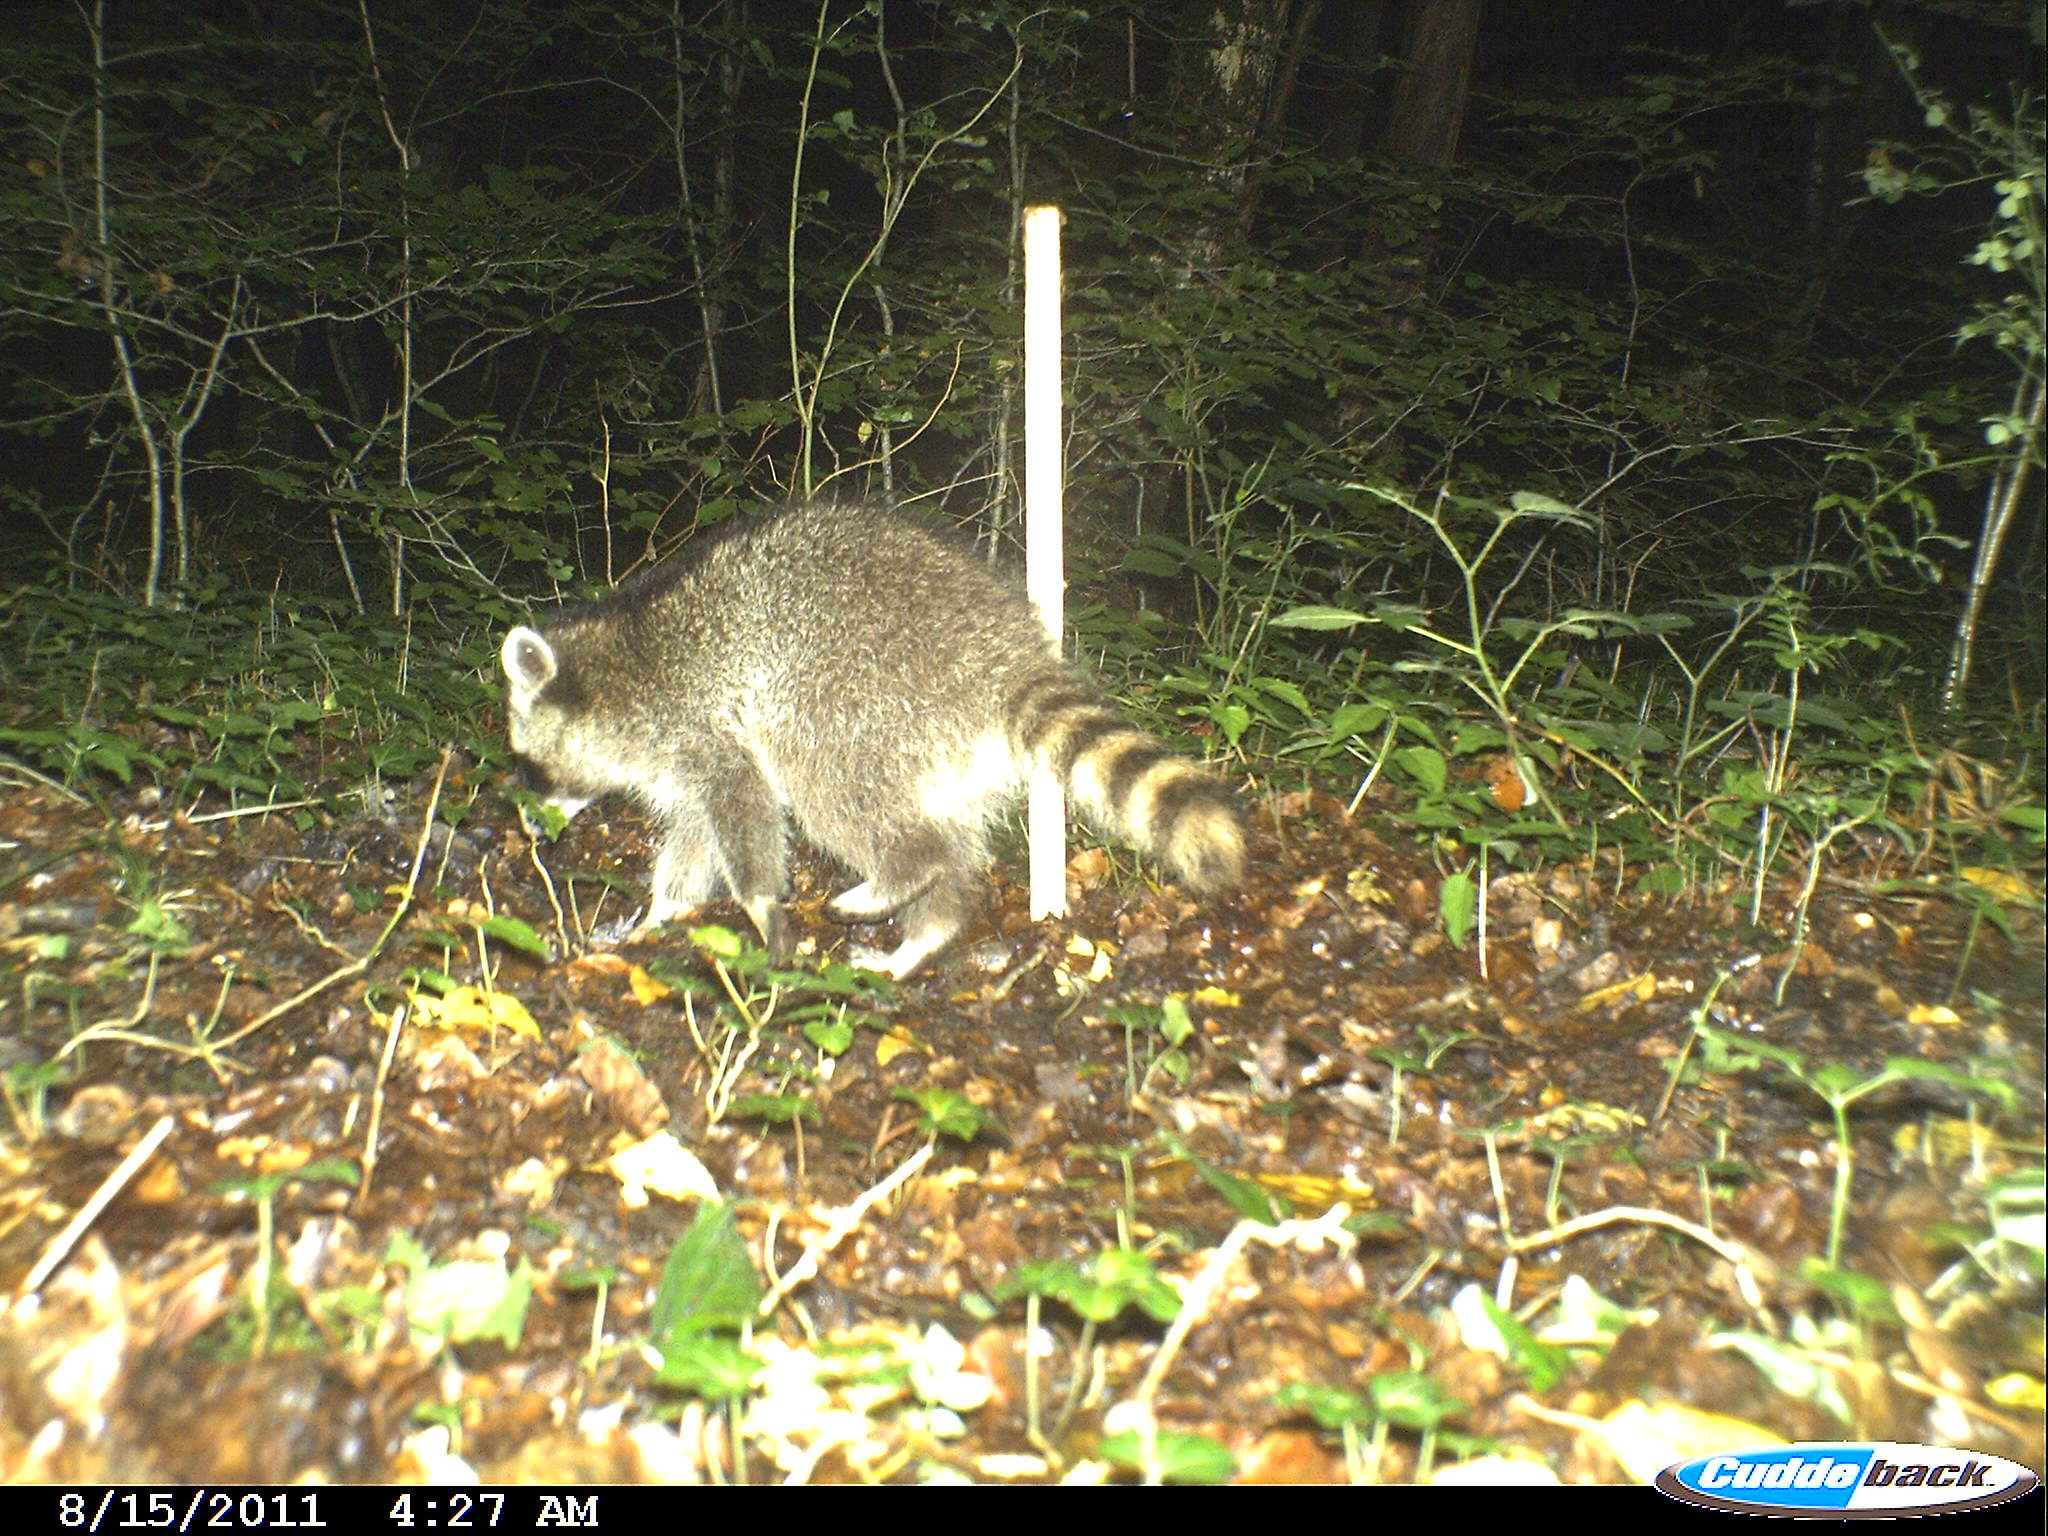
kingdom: Animalia
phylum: Chordata
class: Mammalia
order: Carnivora
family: Procyonidae
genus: Procyon
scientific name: Procyon lotor
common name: Raccoon
